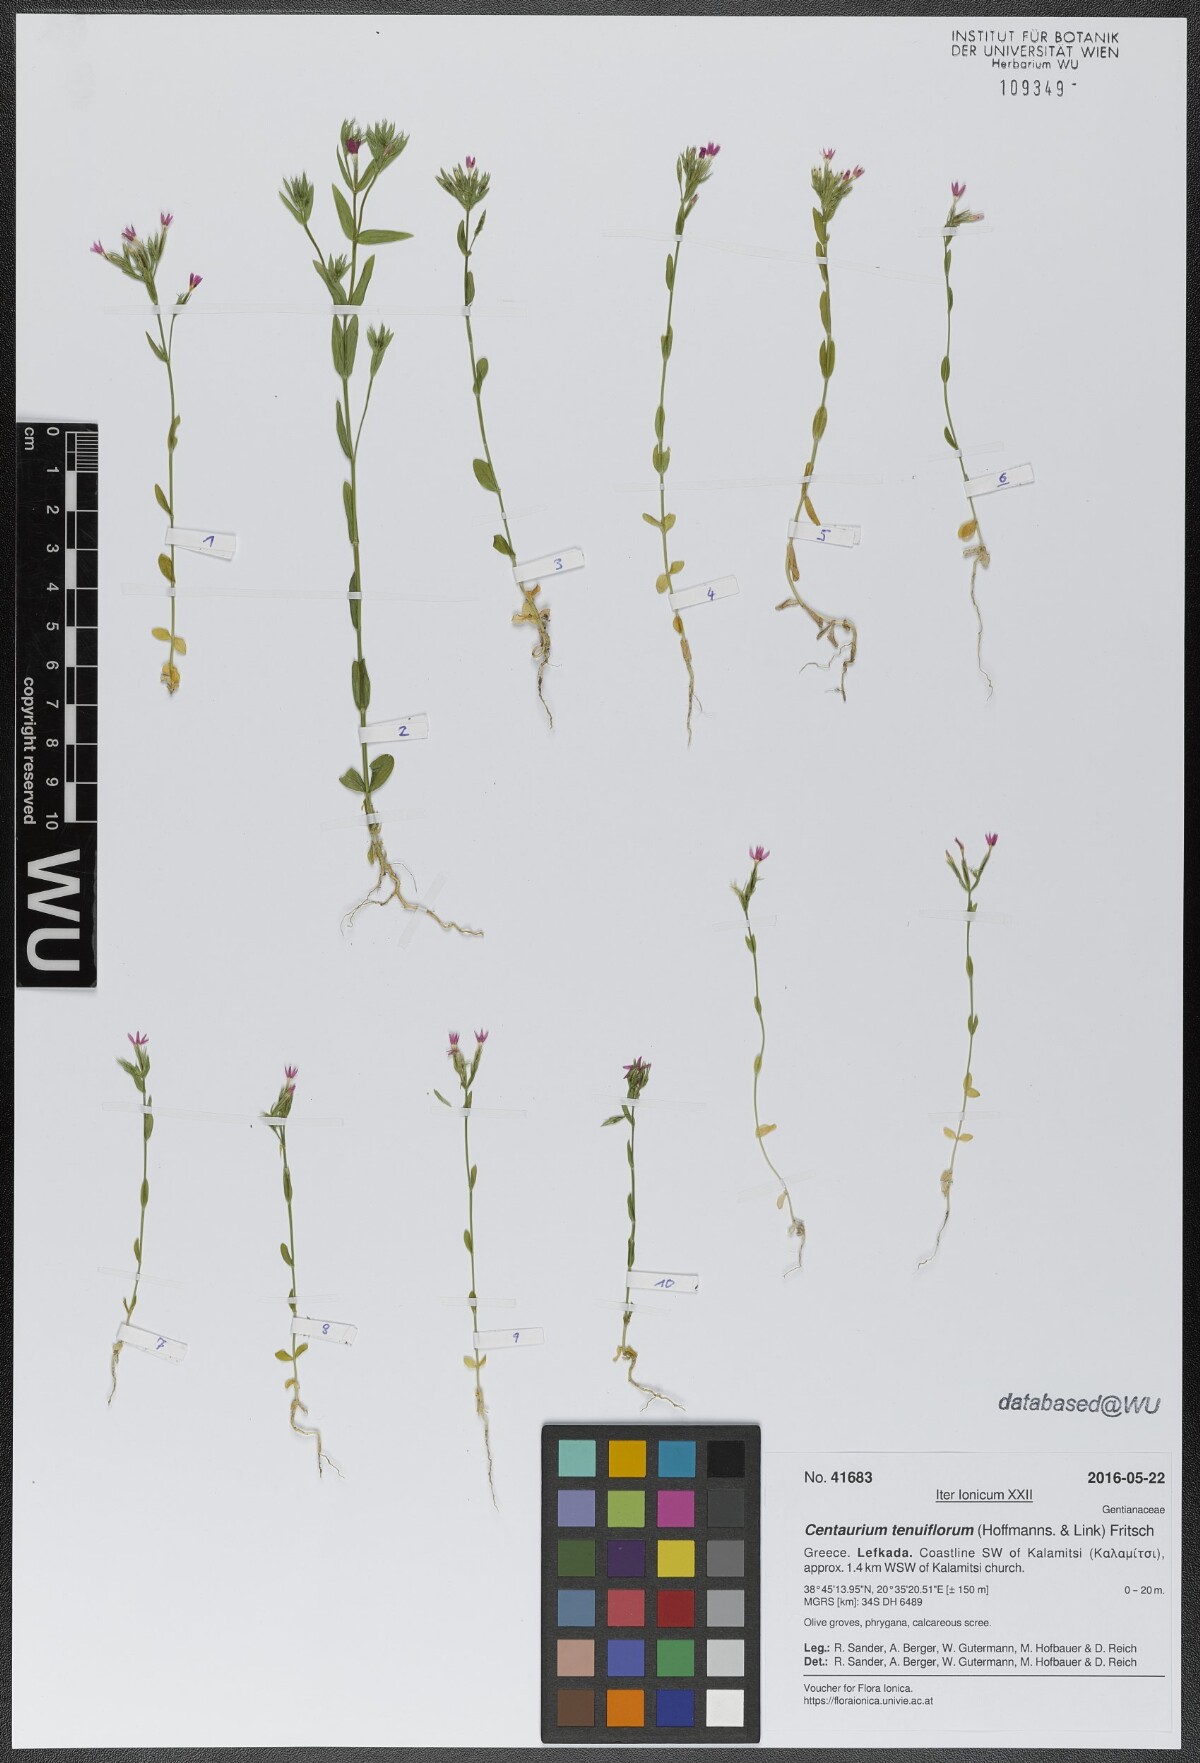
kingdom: Plantae
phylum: Tracheophyta
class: Magnoliopsida
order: Gentianales
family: Gentianaceae
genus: Centaurium
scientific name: Centaurium tenuiflorum
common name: Slender centaury
